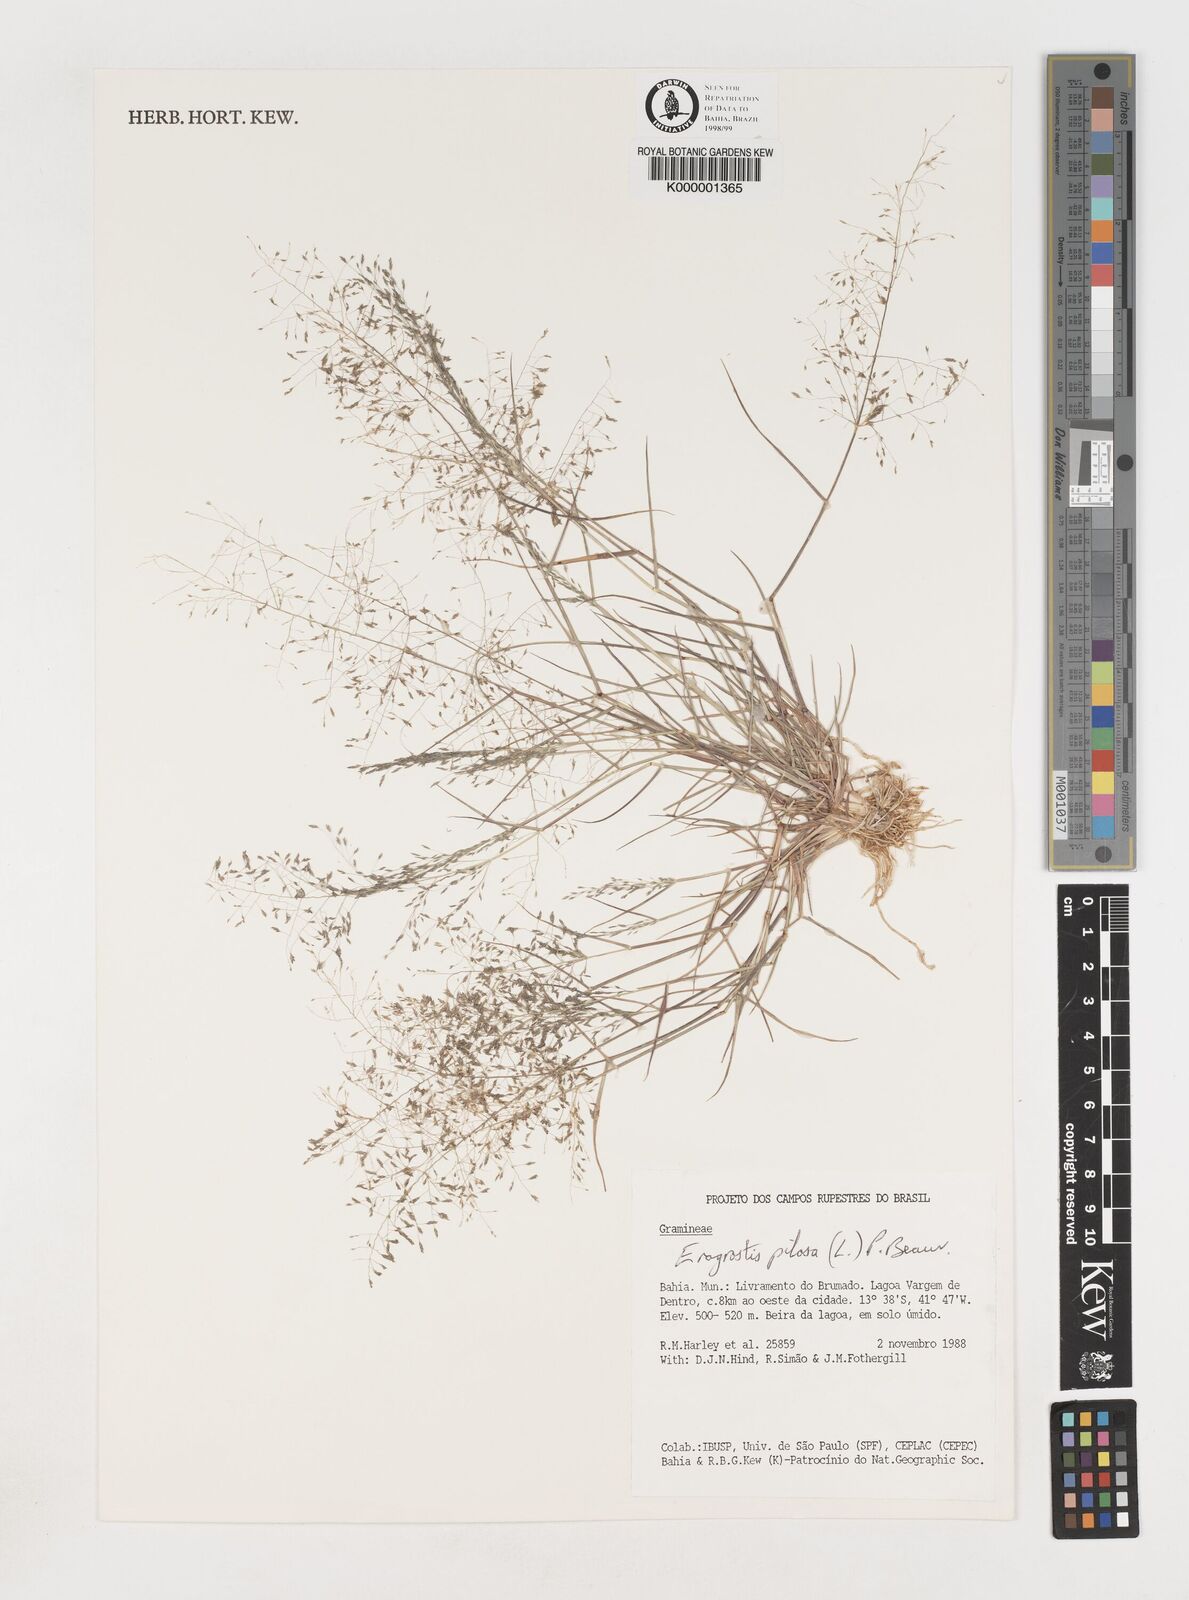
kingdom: Plantae
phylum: Tracheophyta
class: Liliopsida
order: Poales
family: Poaceae
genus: Eragrostis
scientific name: Eragrostis pilosa
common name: Indian lovegrass
